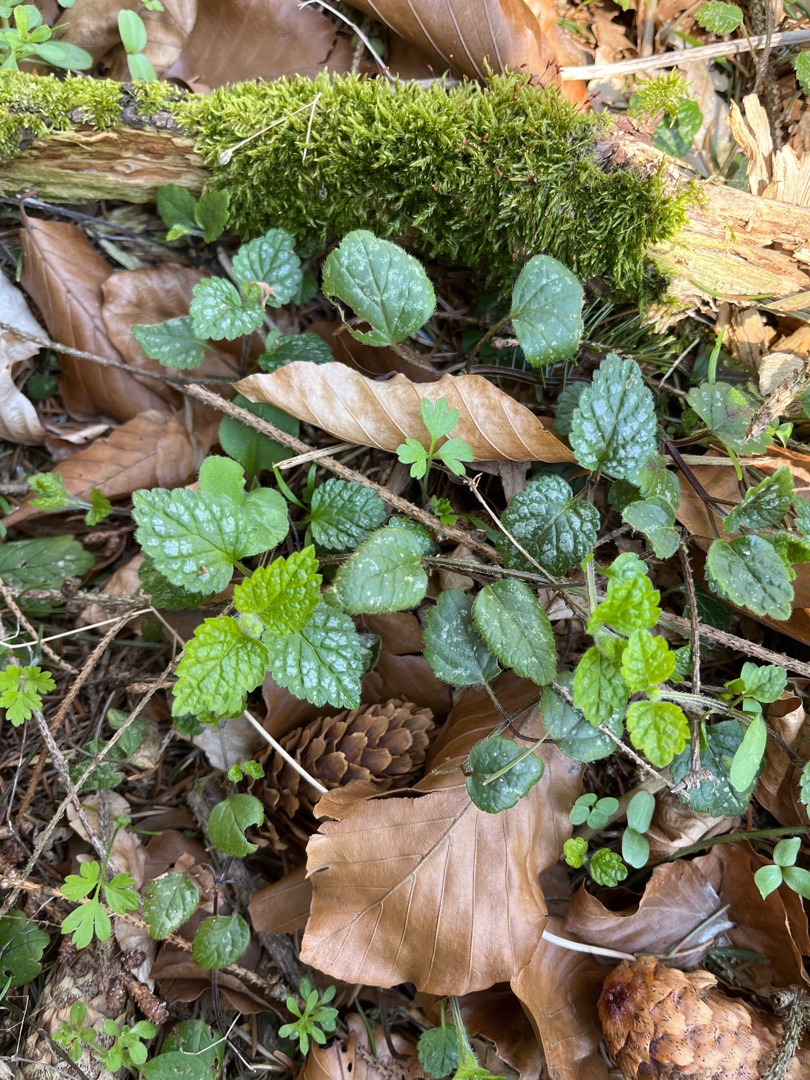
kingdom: Plantae
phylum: Tracheophyta
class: Magnoliopsida
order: Lamiales
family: Lamiaceae
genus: Lamium
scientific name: Lamium galeobdolon
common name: Almindelig guldnælde
